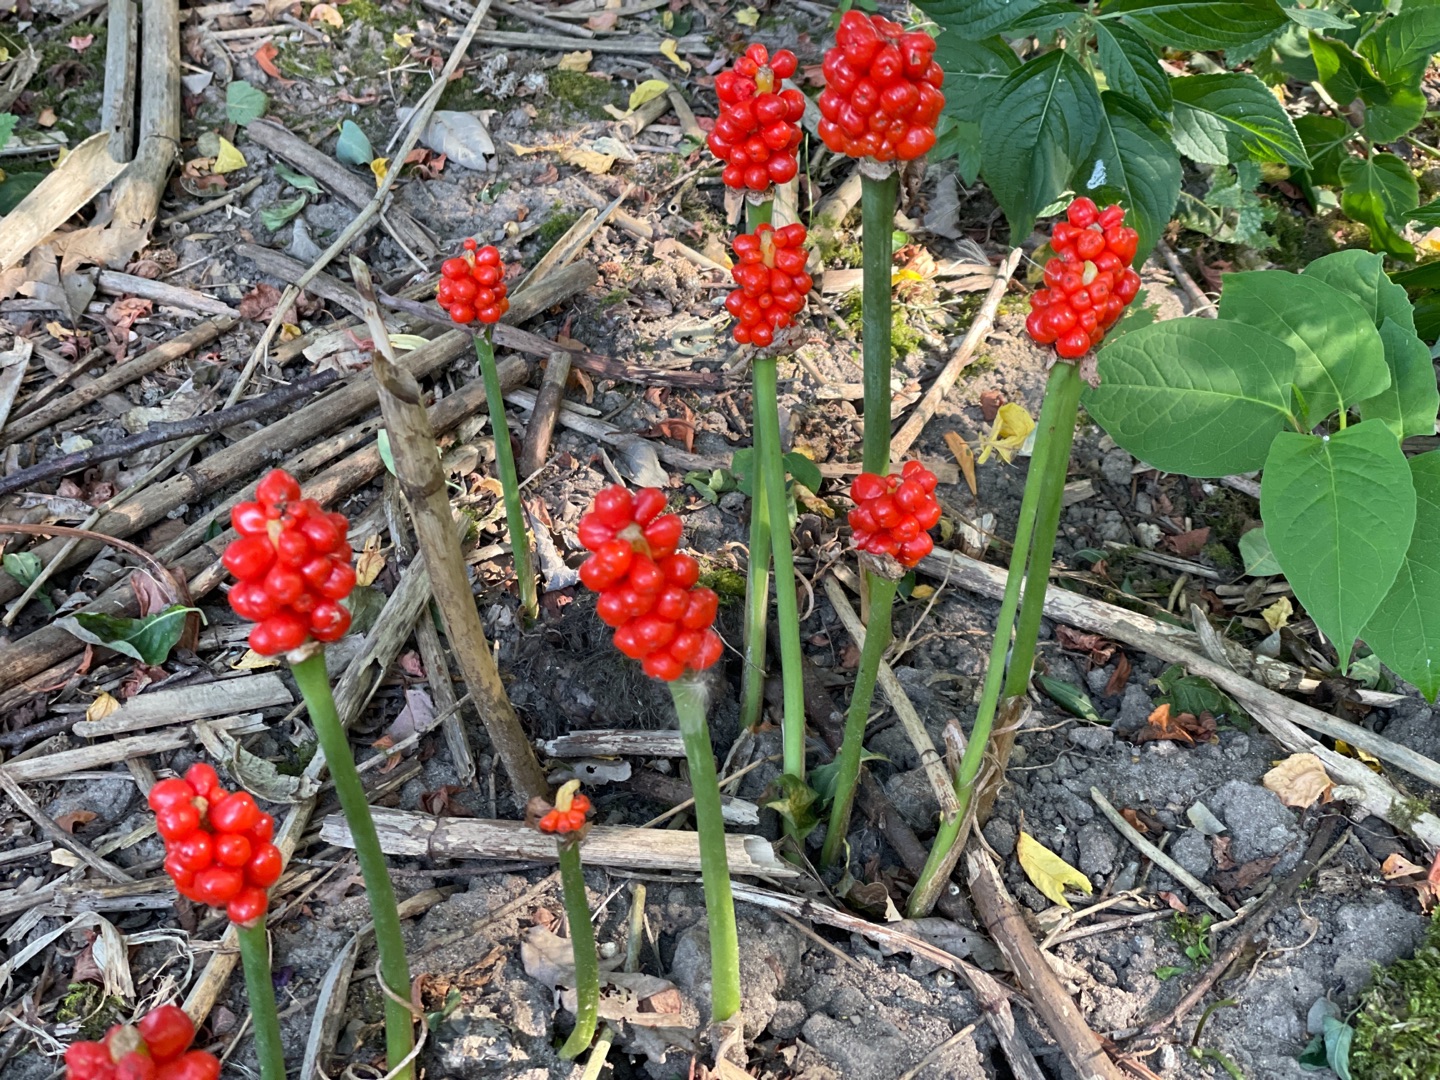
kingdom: Plantae
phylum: Tracheophyta
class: Liliopsida
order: Alismatales
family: Araceae
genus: Arum
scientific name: Arum
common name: Arumslægten
